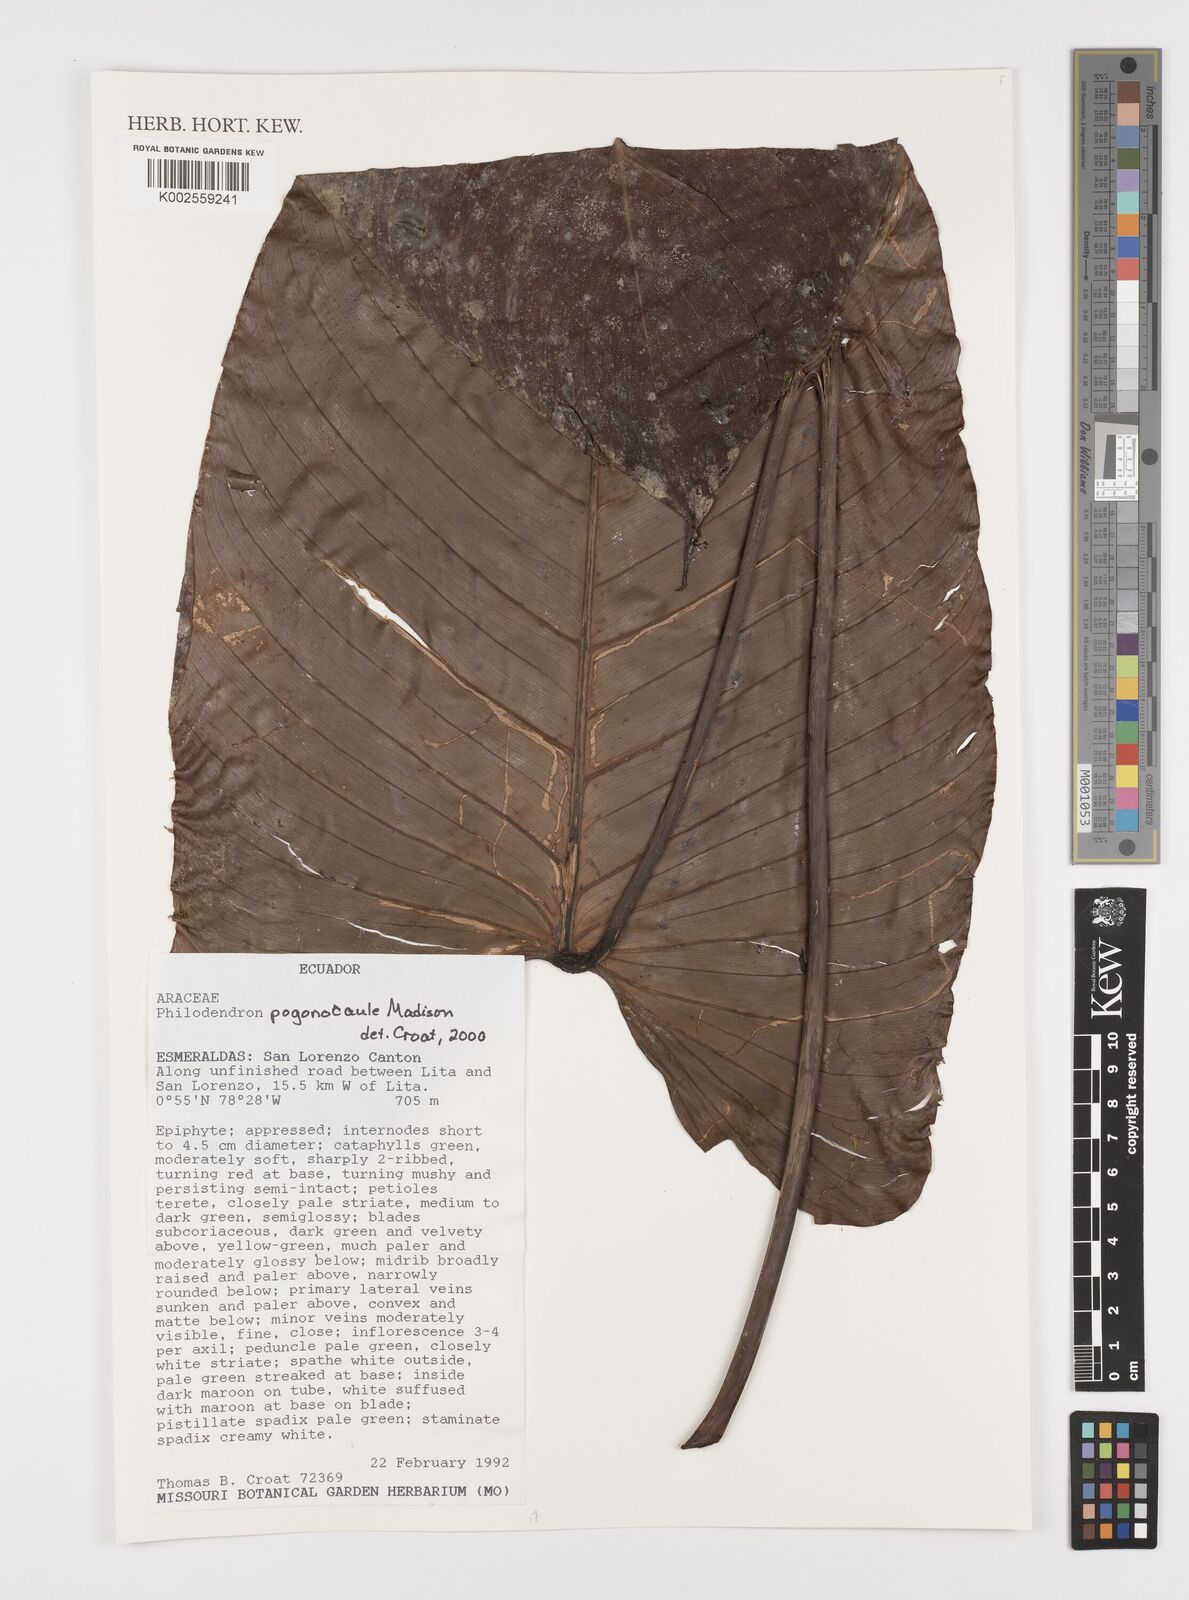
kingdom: Plantae
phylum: Tracheophyta
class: Liliopsida
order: Alismatales
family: Araceae
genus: Philodendron
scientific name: Philodendron pogonocaule
